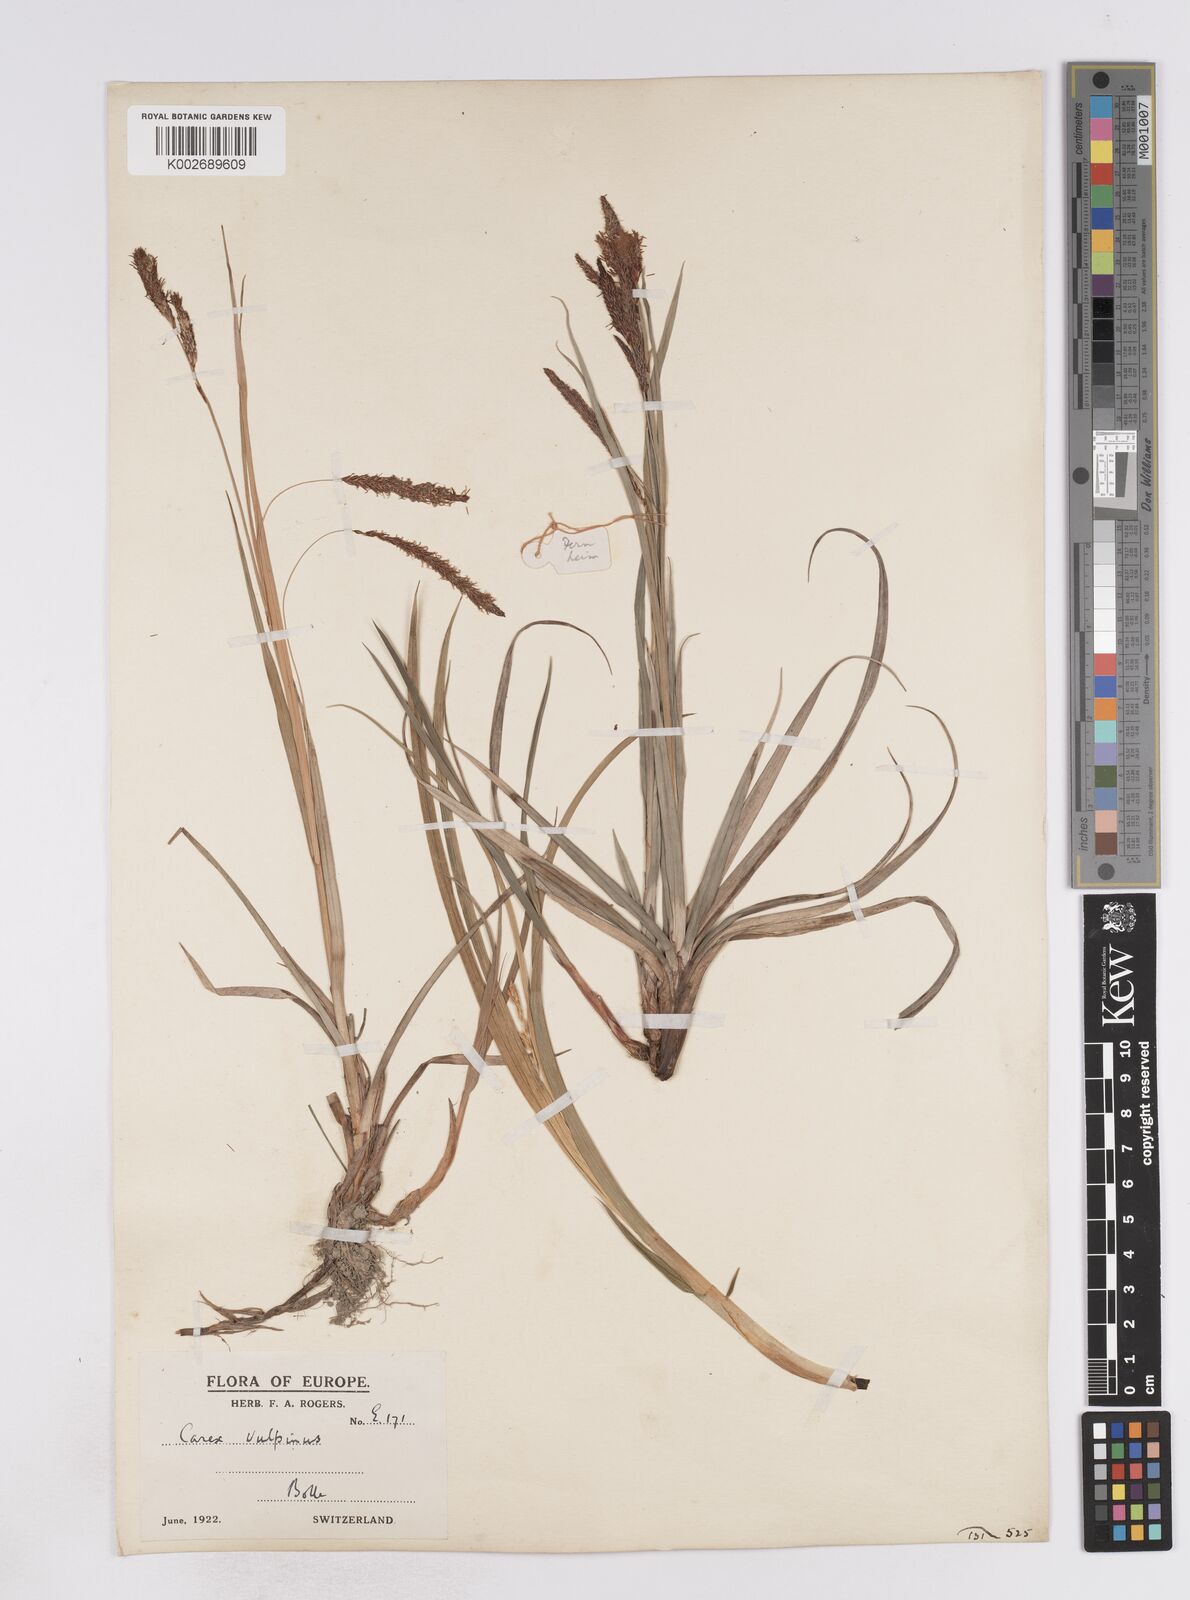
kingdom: Plantae
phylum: Tracheophyta
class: Liliopsida
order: Poales
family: Cyperaceae
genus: Carex
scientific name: Carex flacca
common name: Glaucous sedge
